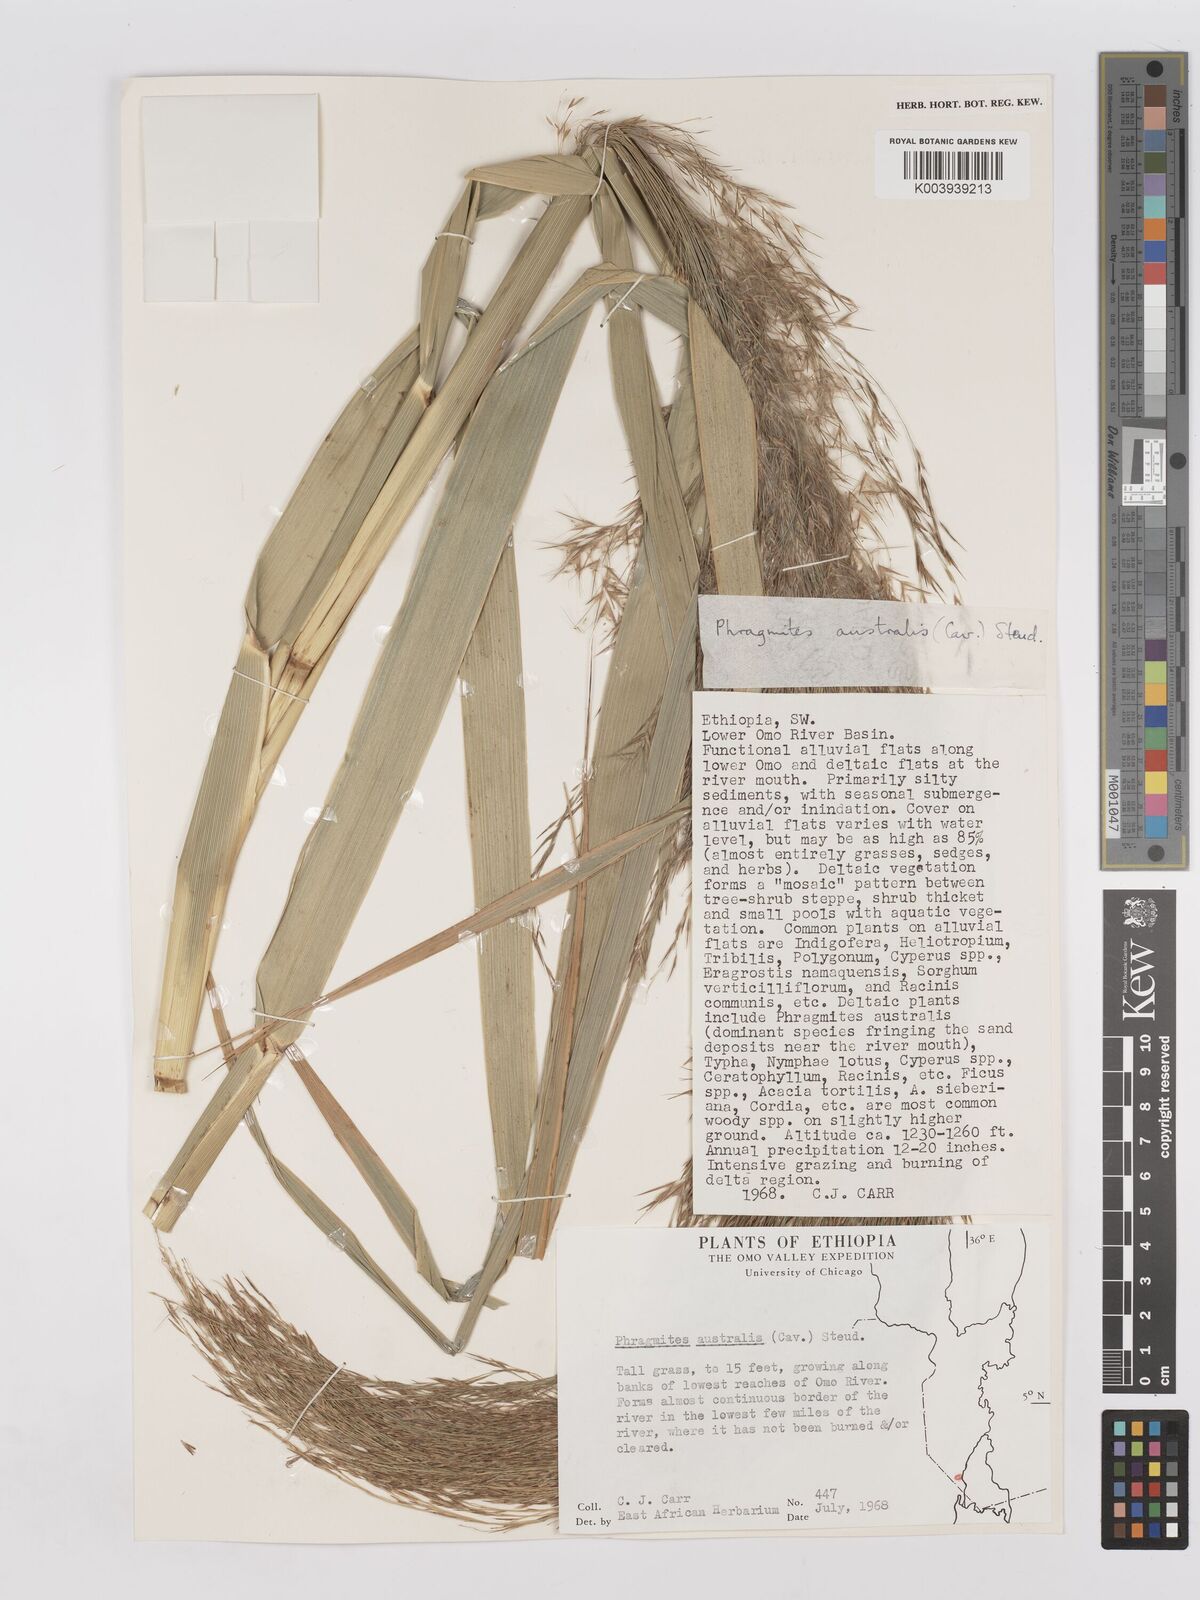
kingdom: Plantae
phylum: Tracheophyta
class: Liliopsida
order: Poales
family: Poaceae
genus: Phragmites
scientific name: Phragmites australis
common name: Common reed
